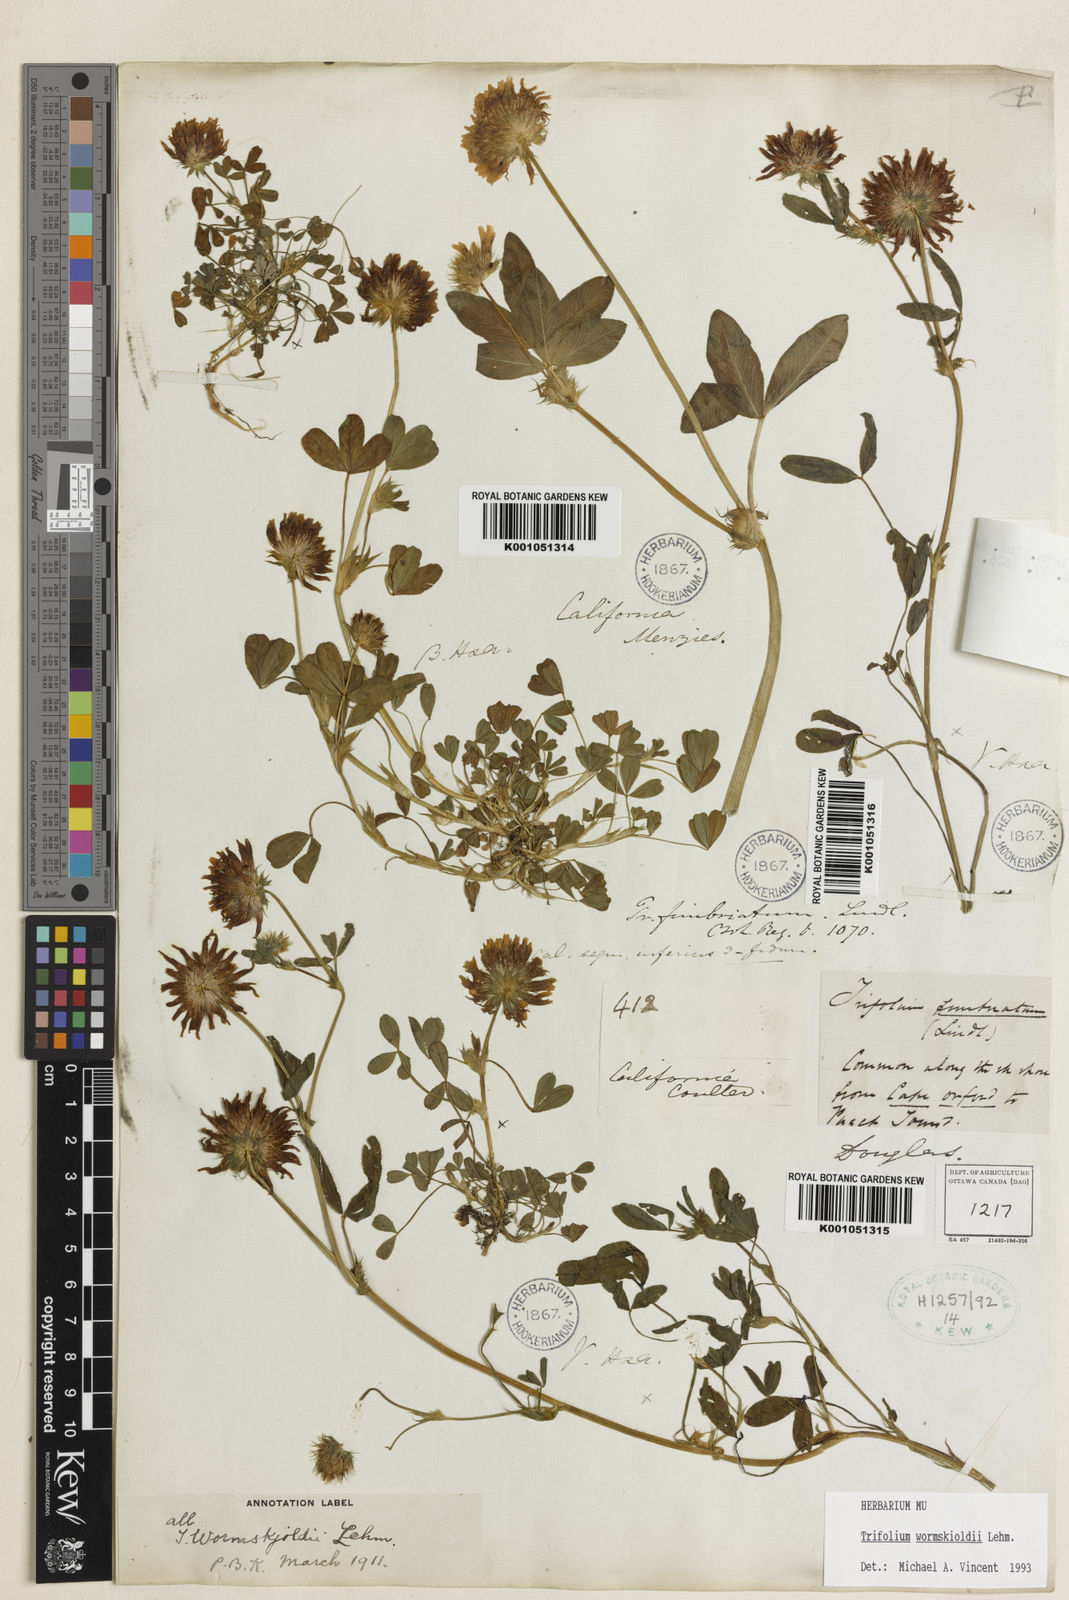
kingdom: Plantae
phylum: Tracheophyta
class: Magnoliopsida
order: Fabales
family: Fabaceae
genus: Trifolium
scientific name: Trifolium willdenovii
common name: Tomcat clover
